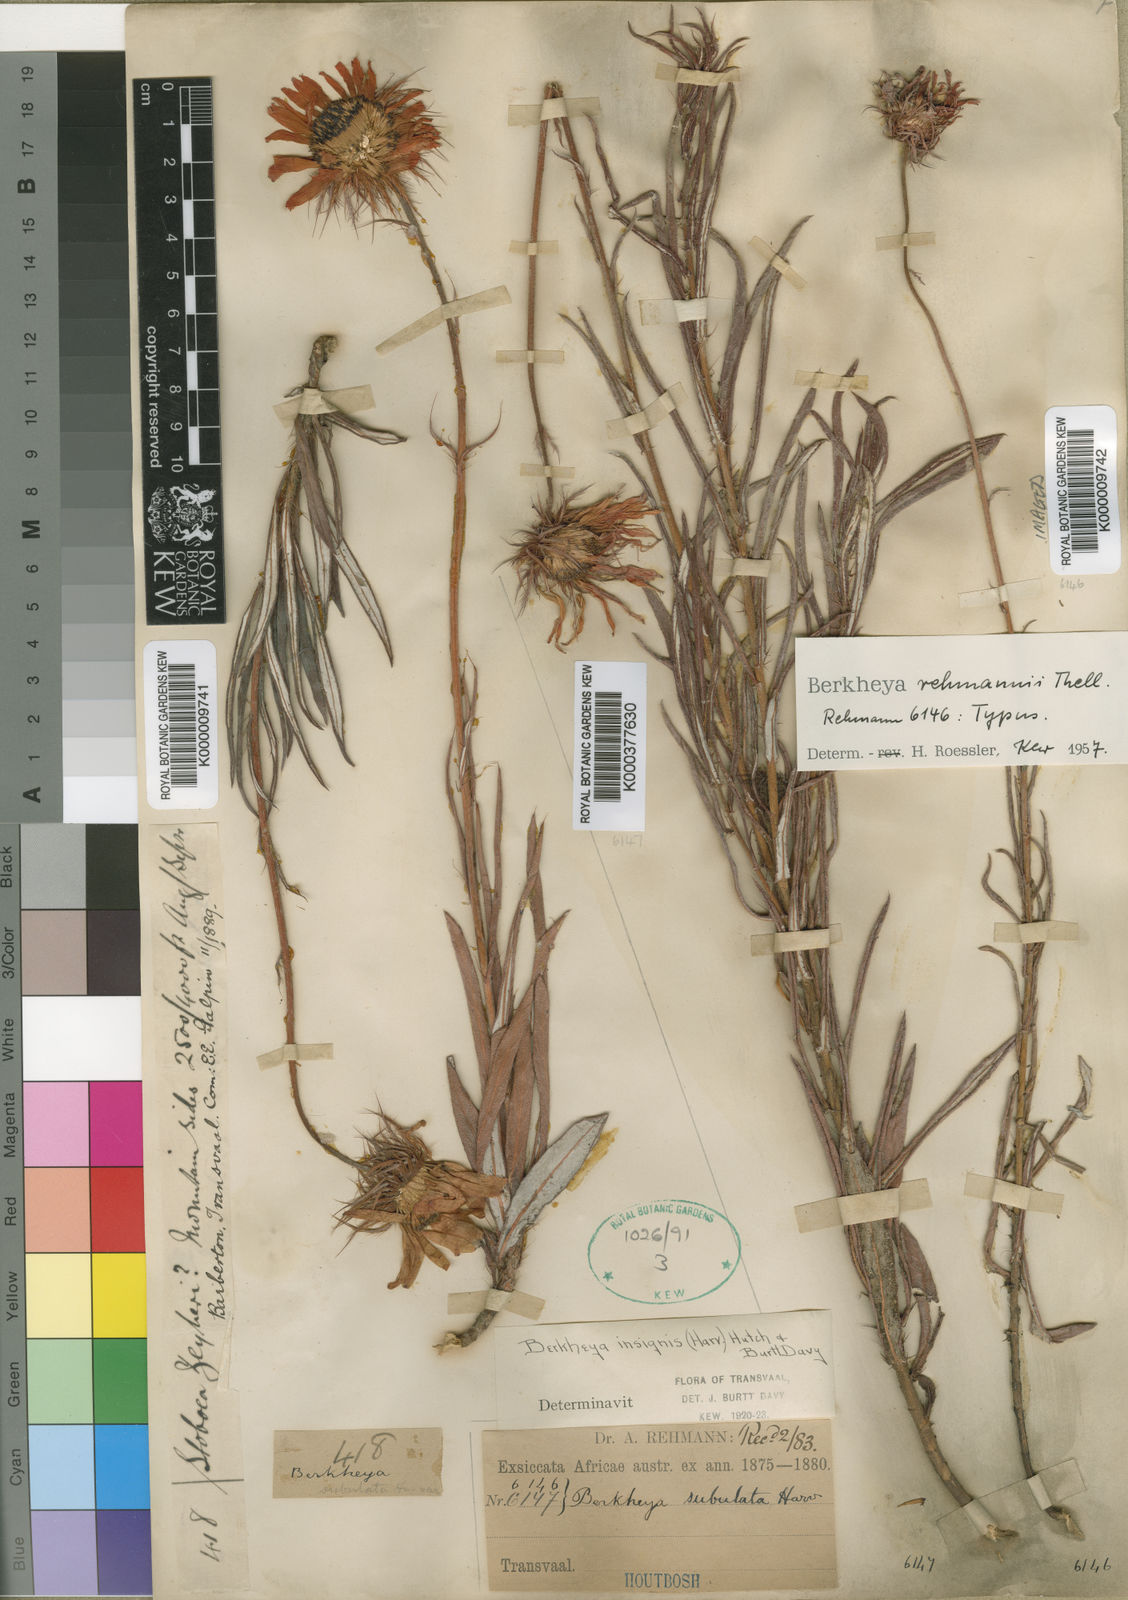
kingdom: Plantae
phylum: Tracheophyta
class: Magnoliopsida
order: Asterales
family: Asteraceae
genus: Berkheya
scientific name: Berkheya zeyheri
